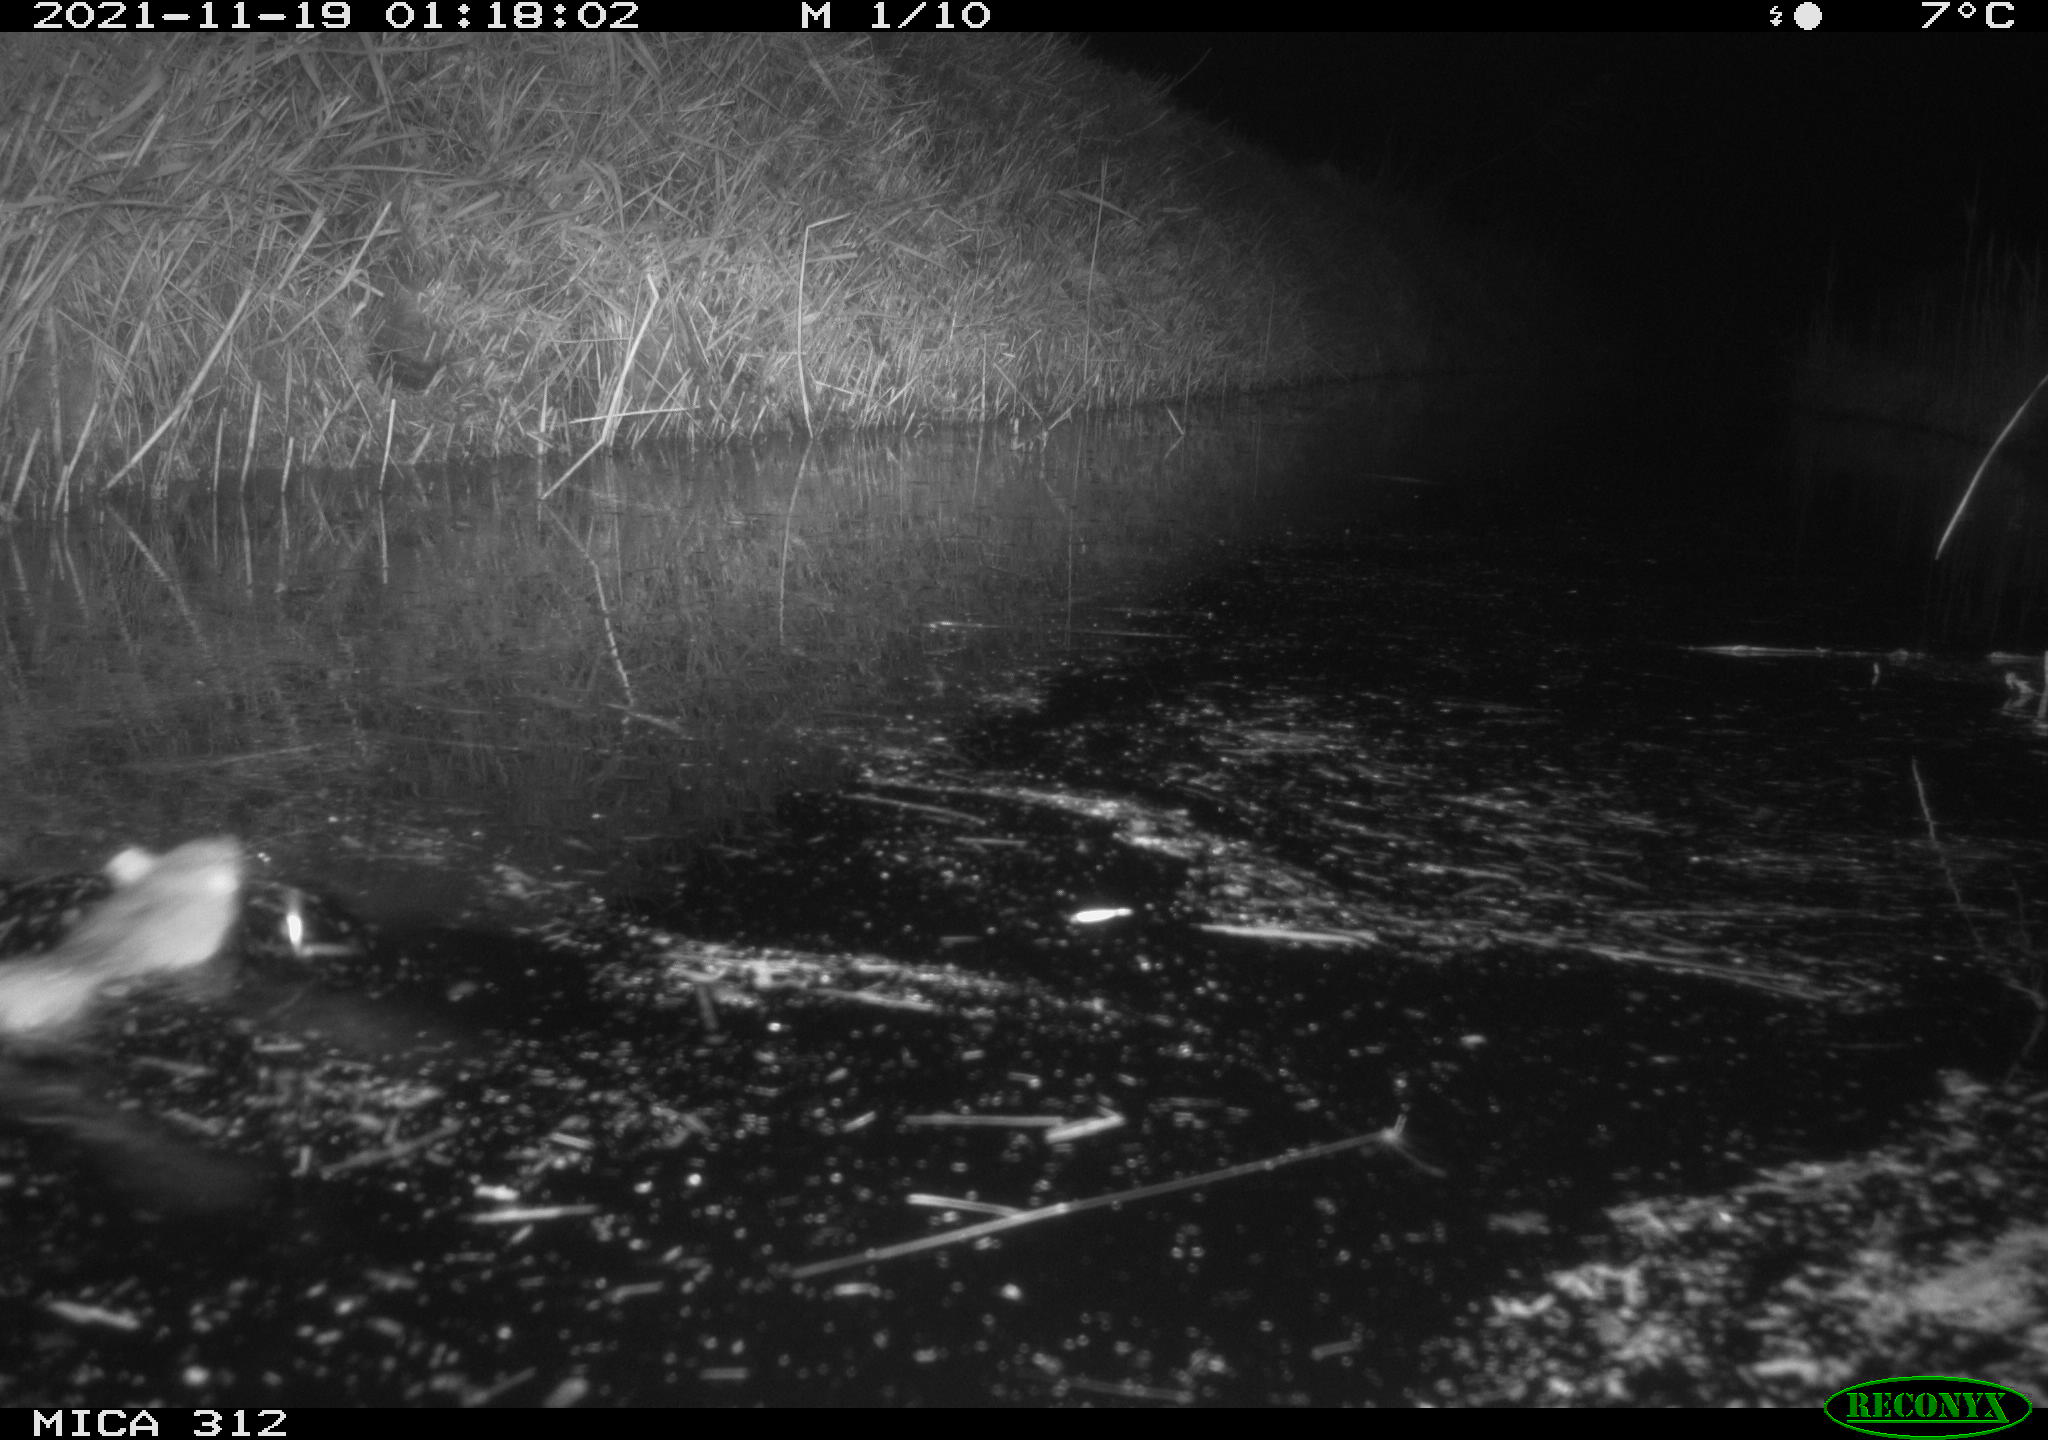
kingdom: Animalia
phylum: Chordata
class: Mammalia
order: Rodentia
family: Muridae
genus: Rattus
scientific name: Rattus norvegicus
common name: Brown rat
